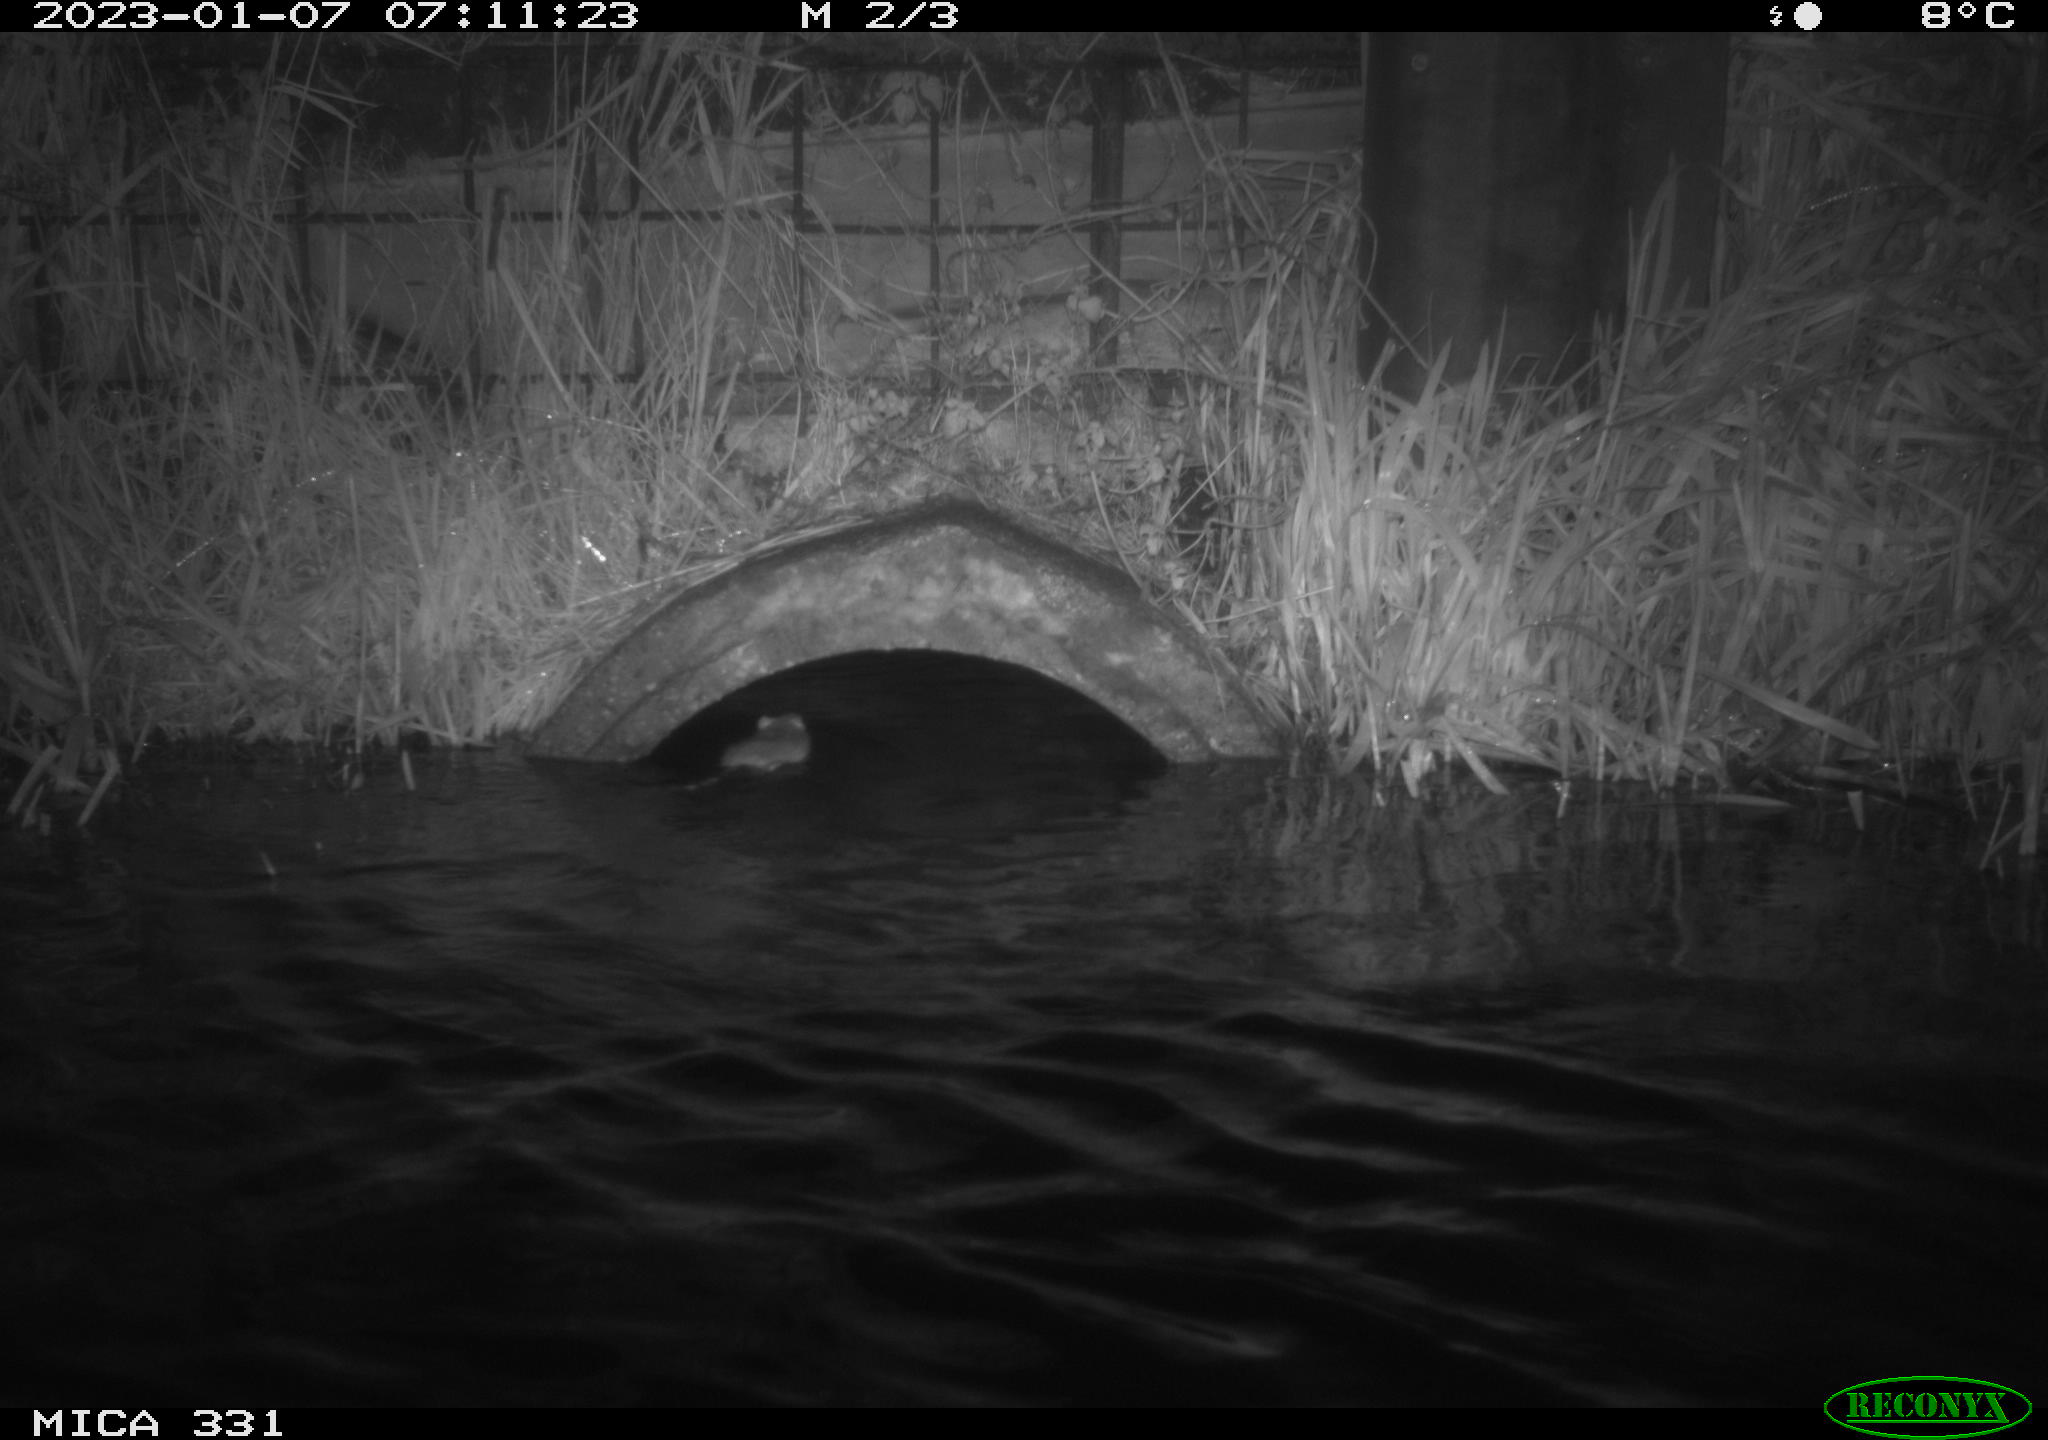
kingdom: Animalia
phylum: Chordata
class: Mammalia
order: Rodentia
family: Muridae
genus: Rattus
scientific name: Rattus norvegicus
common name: Brown rat
